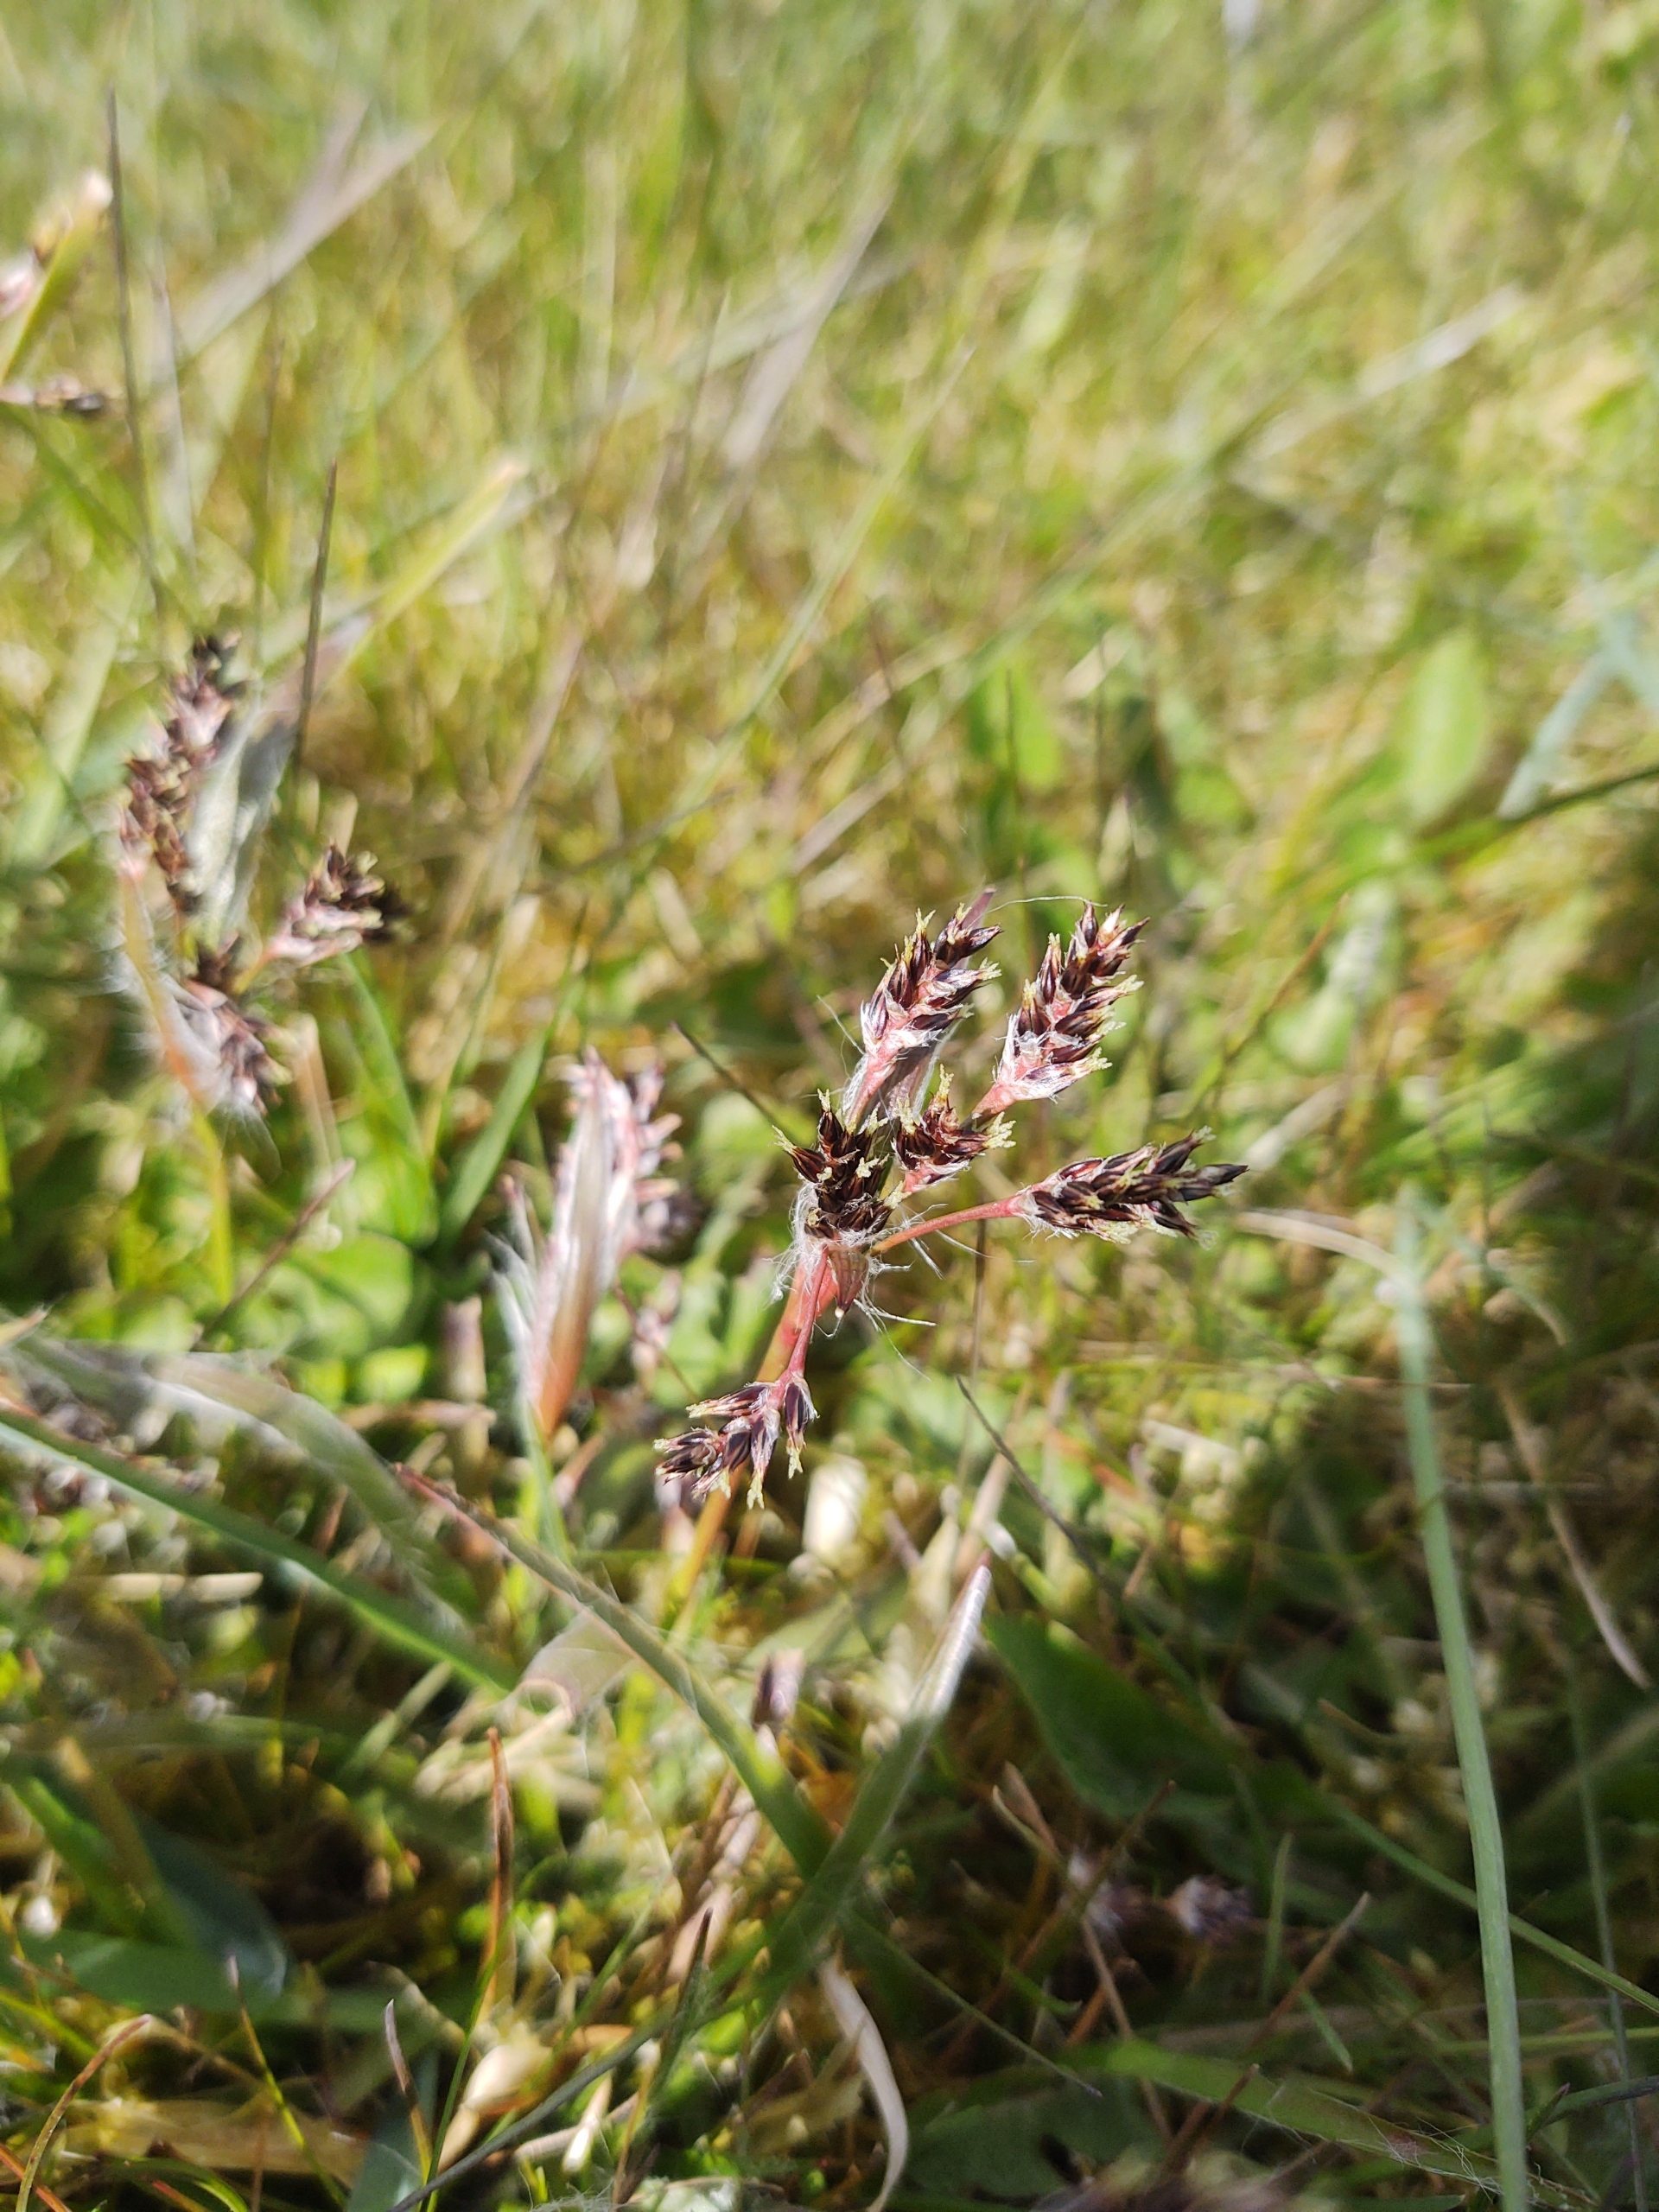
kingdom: Plantae
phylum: Tracheophyta
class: Liliopsida
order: Poales
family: Juncaceae
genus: Luzula
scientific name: Luzula campestris
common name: Mark-frytle
